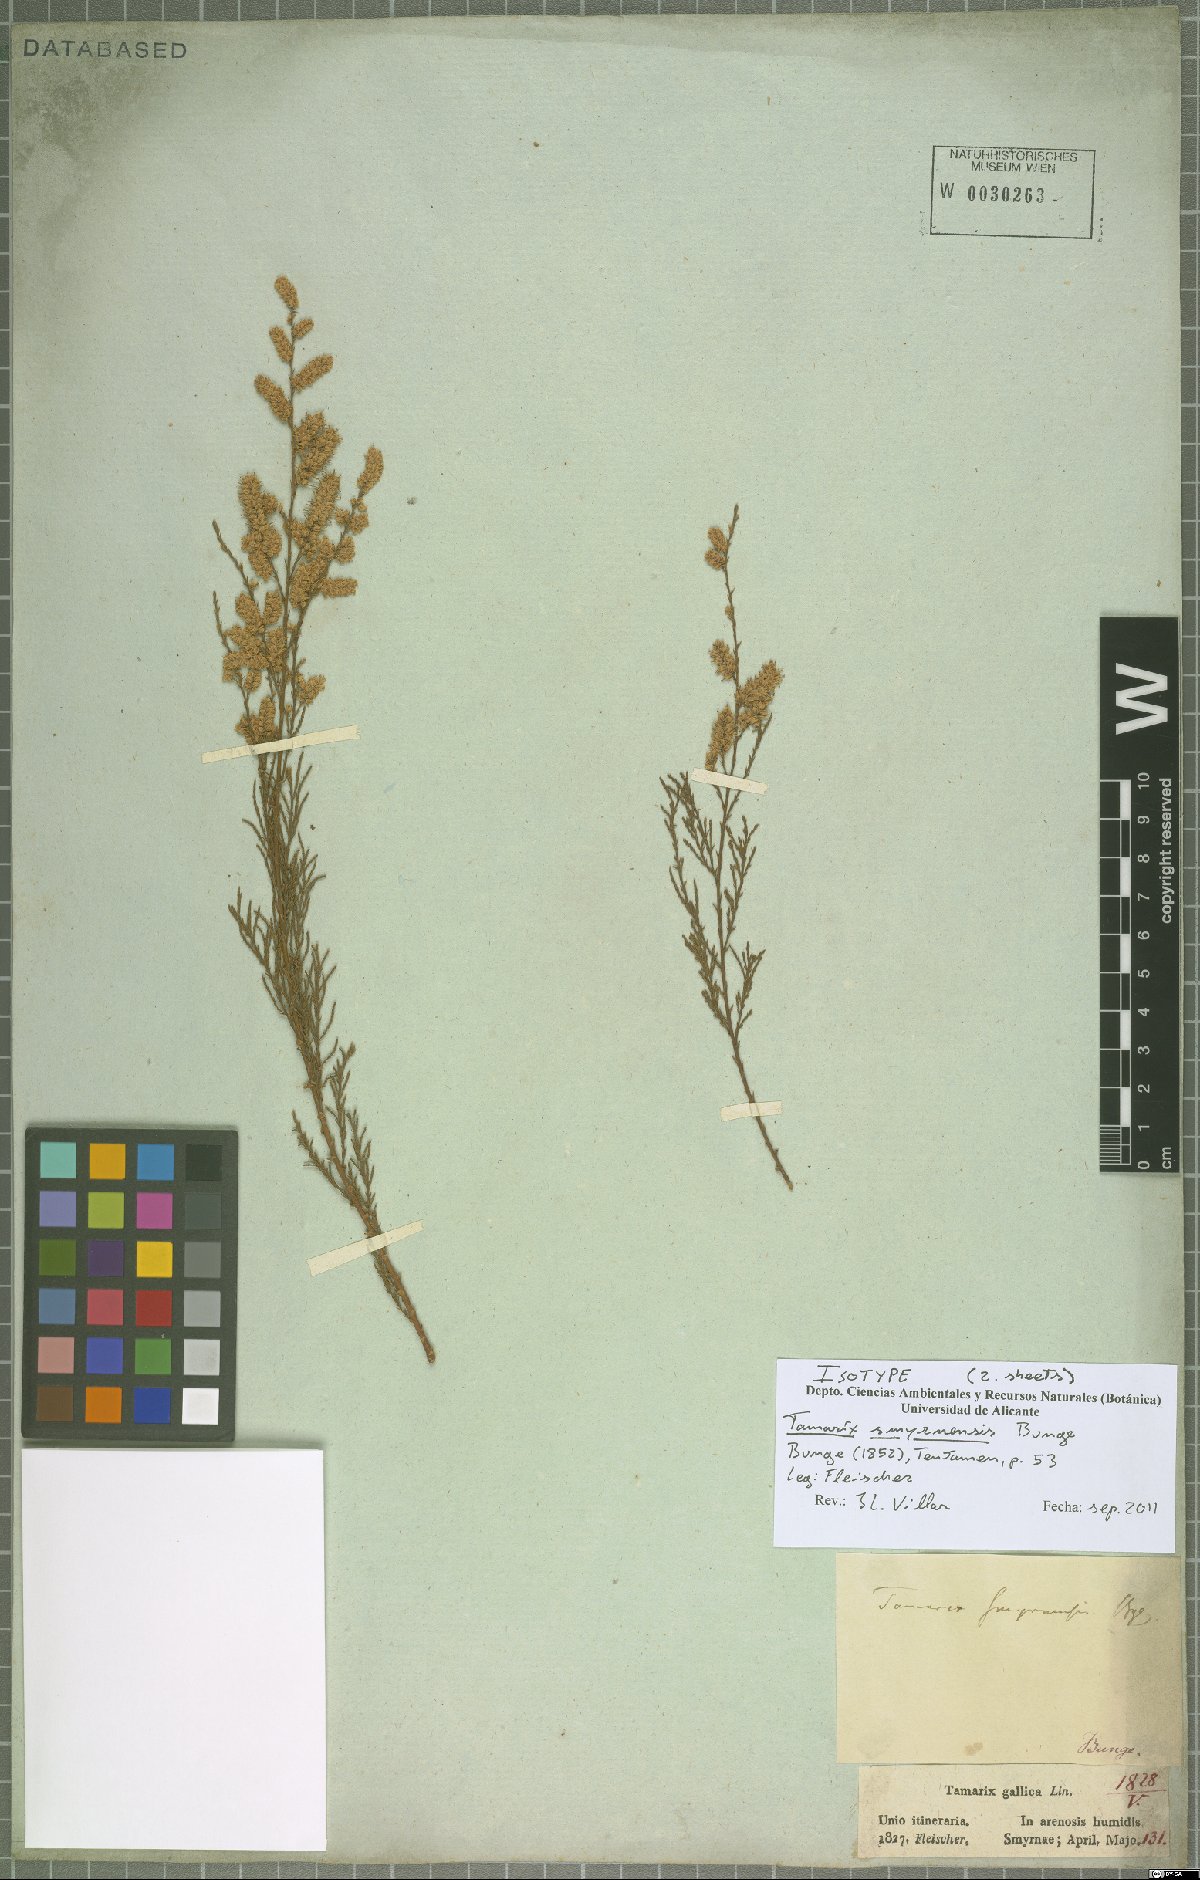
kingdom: Plantae
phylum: Tracheophyta
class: Magnoliopsida
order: Caryophyllales
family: Tamaricaceae
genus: Tamarix
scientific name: Tamarix smyrnensis
